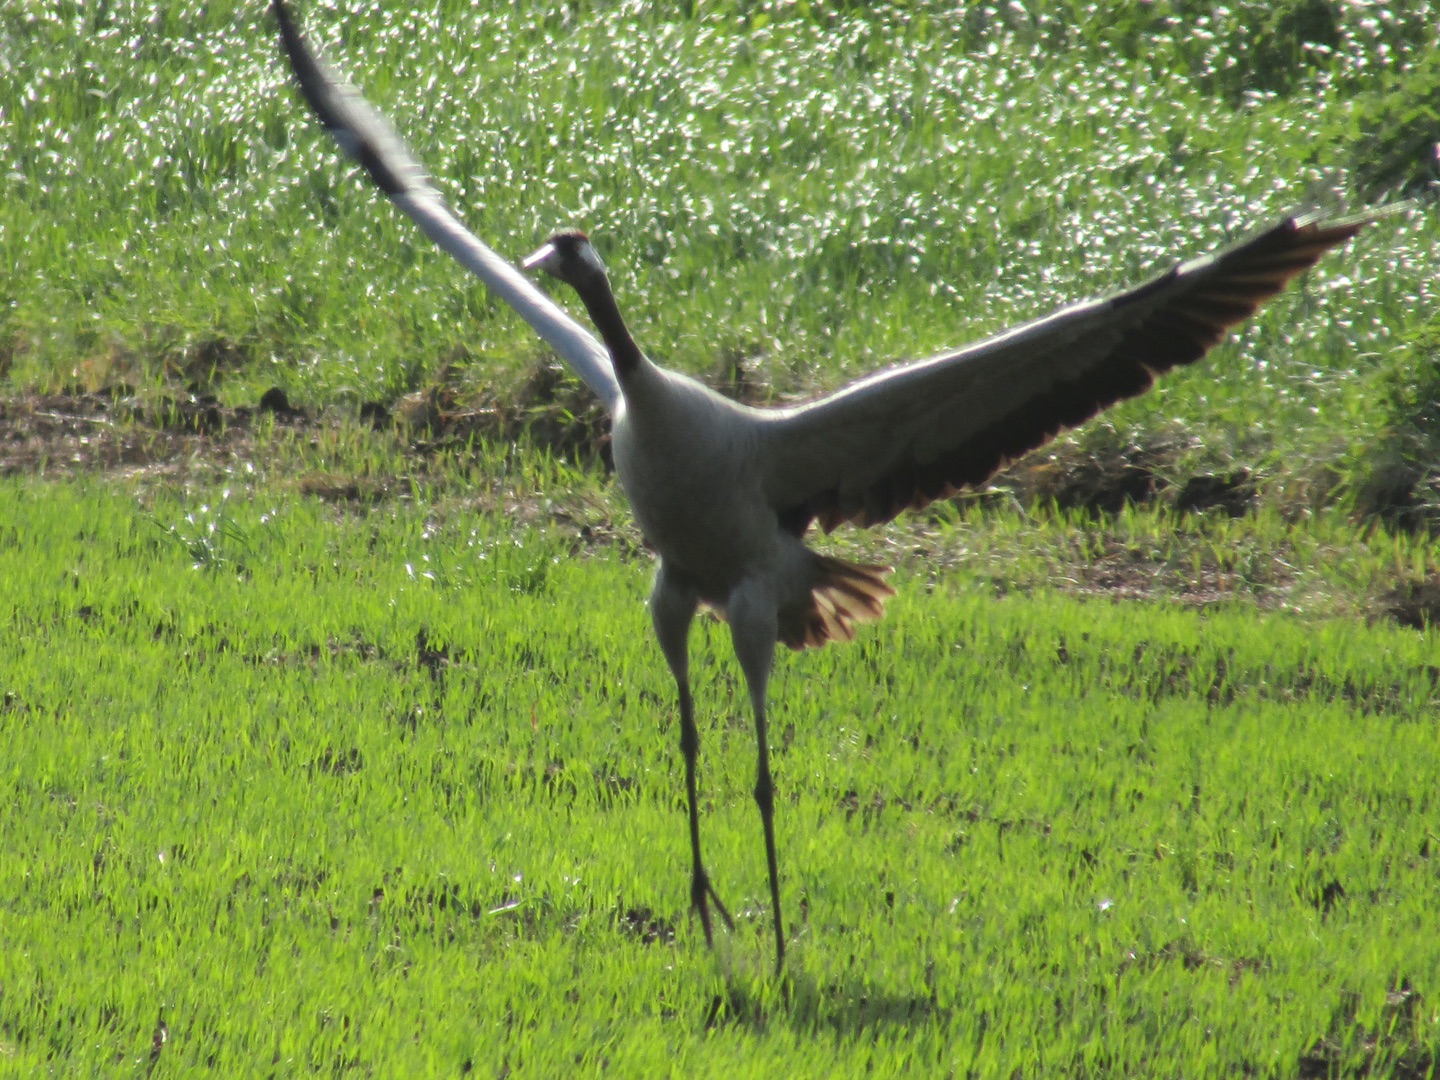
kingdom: Animalia
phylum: Chordata
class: Aves
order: Gruiformes
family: Gruidae
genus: Grus
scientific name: Grus grus
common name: Trane
